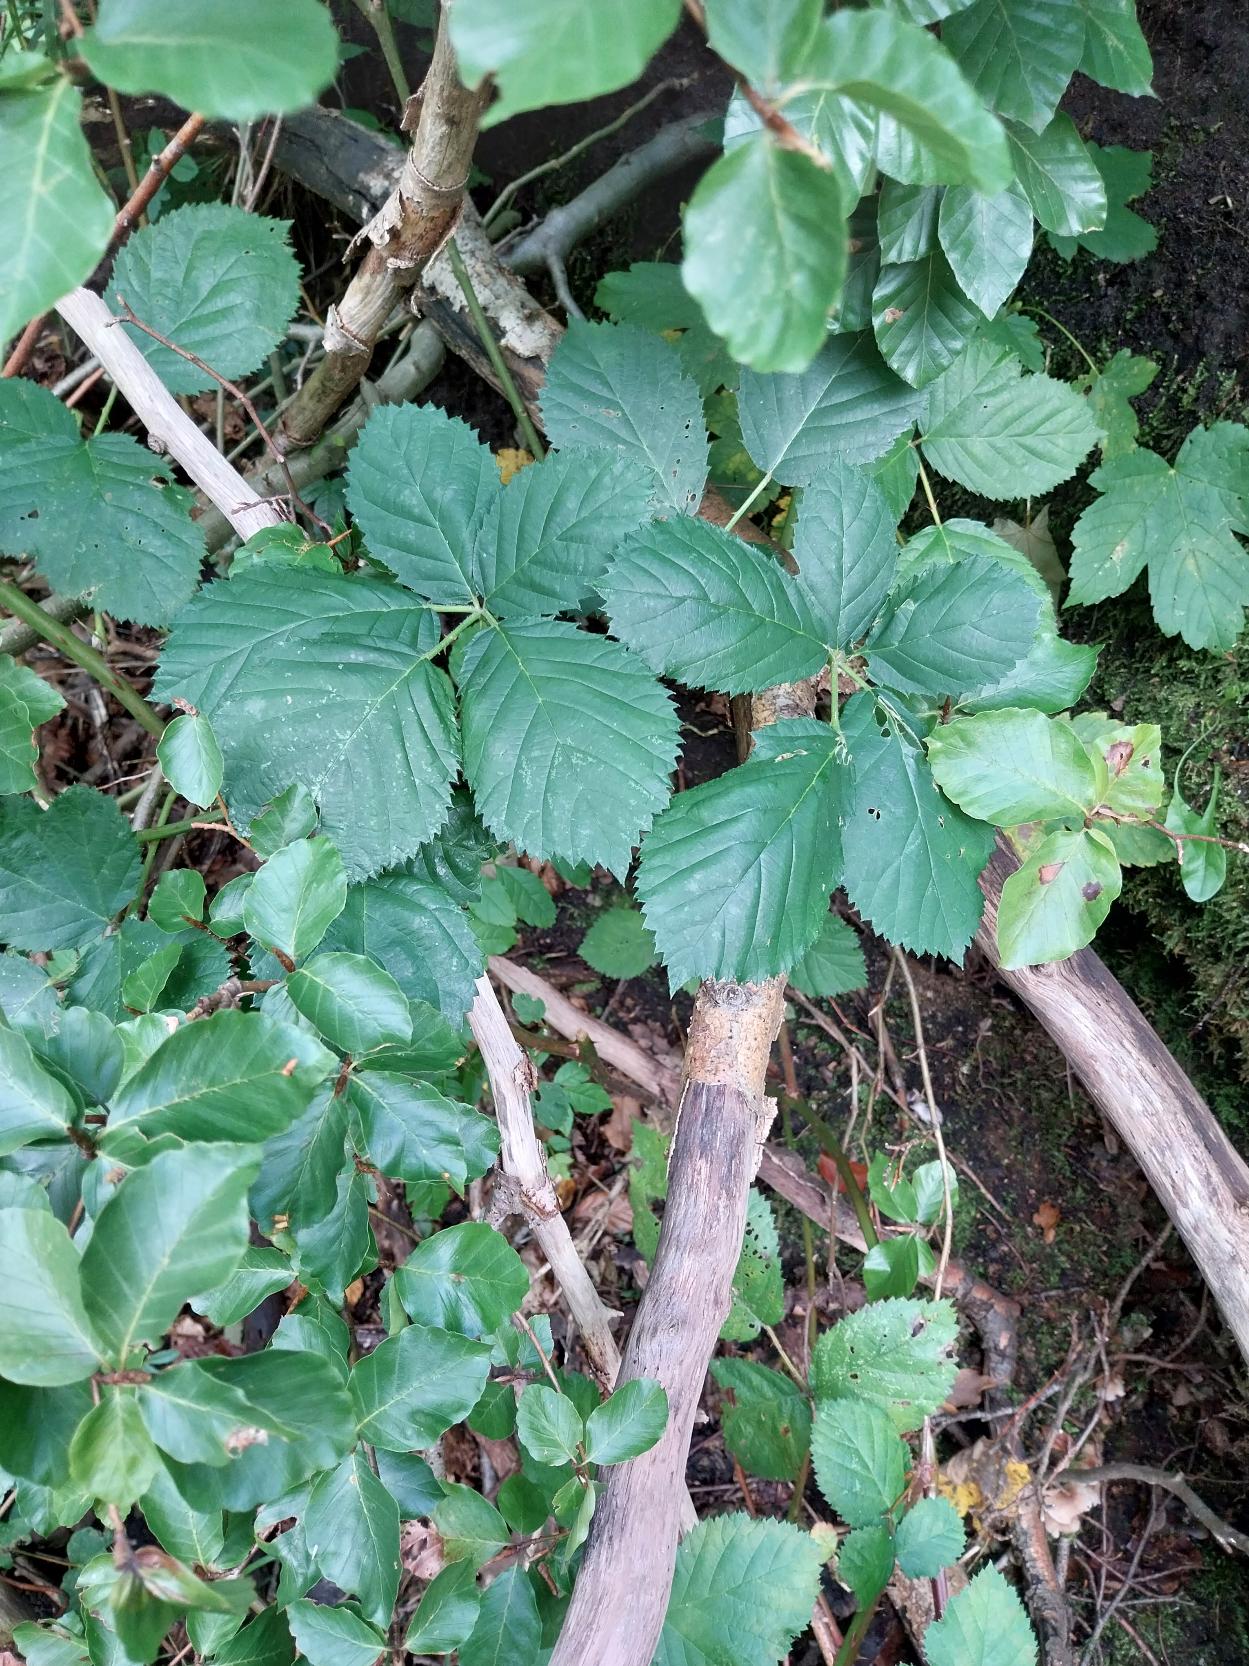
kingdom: Plantae
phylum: Tracheophyta
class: Magnoliopsida
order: Rosales
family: Rosaceae
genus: Rubus
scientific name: Rubus armeniacus
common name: Armensk brombær
